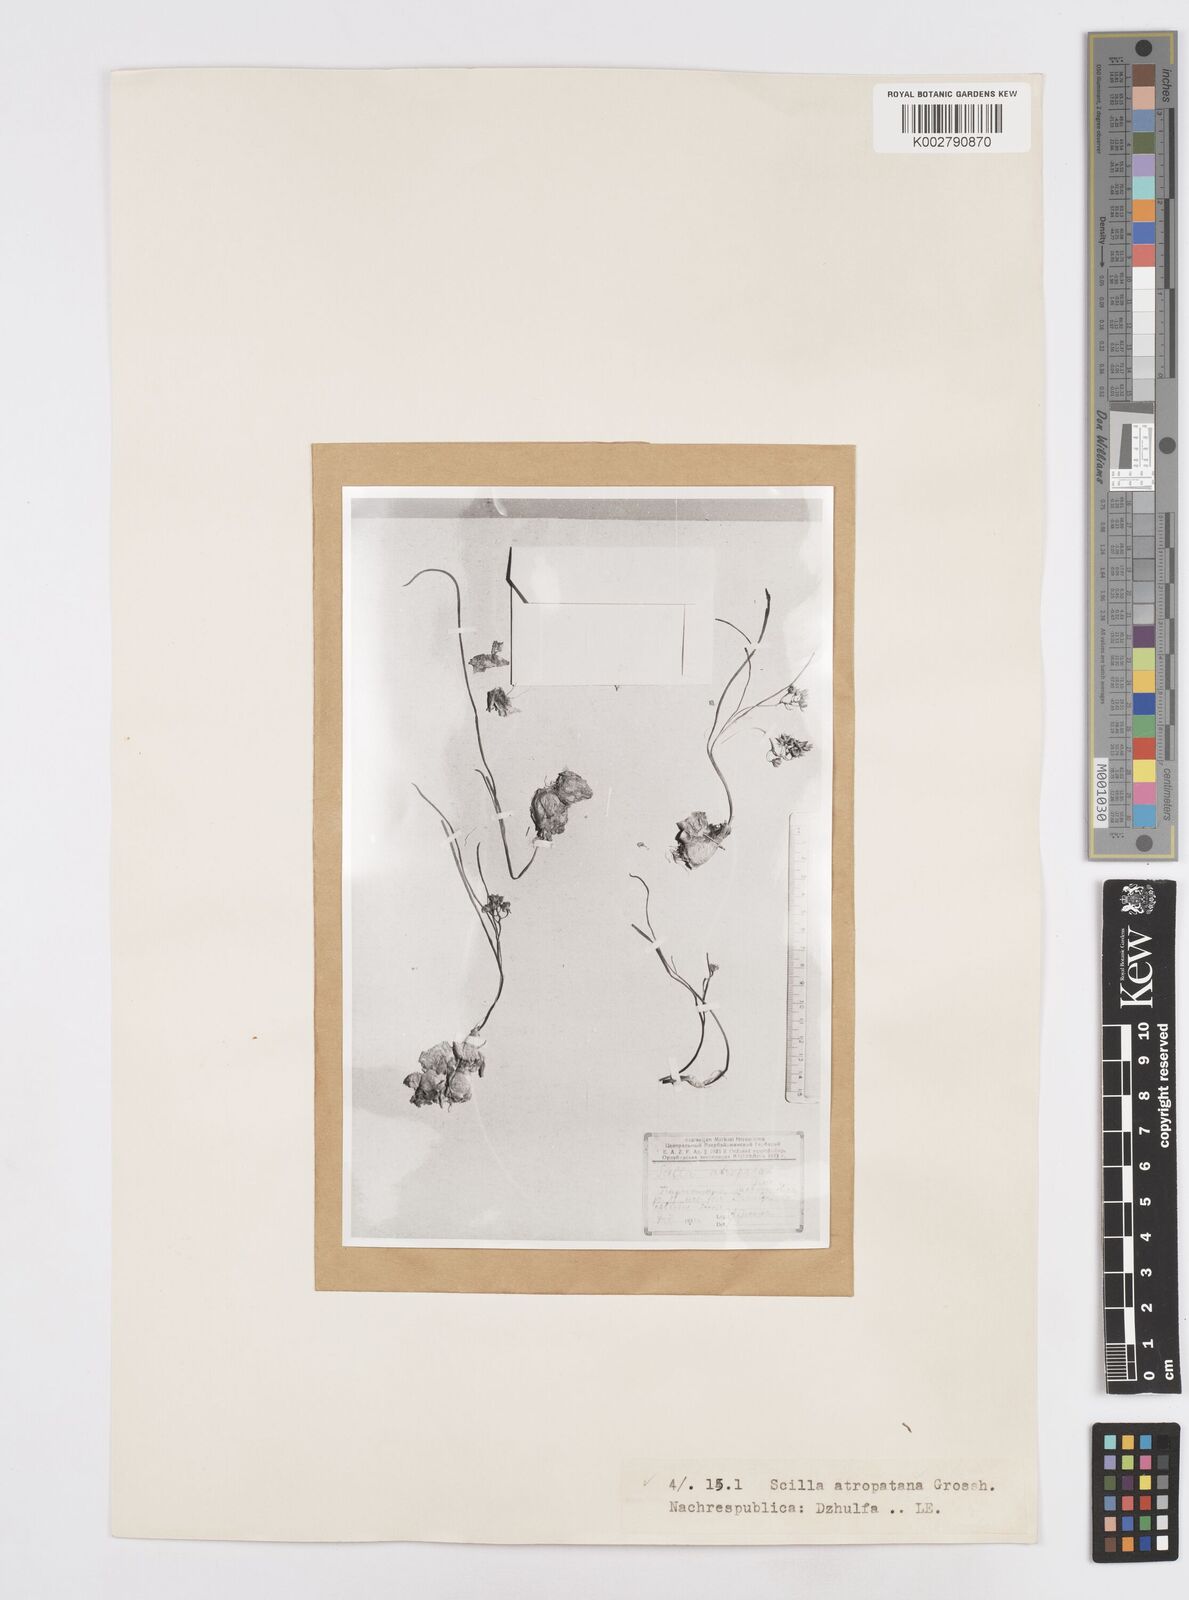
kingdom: Plantae
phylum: Tracheophyta
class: Liliopsida
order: Asparagales
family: Asparagaceae
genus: Hyacinthella
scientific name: Hyacinthella atropatana
